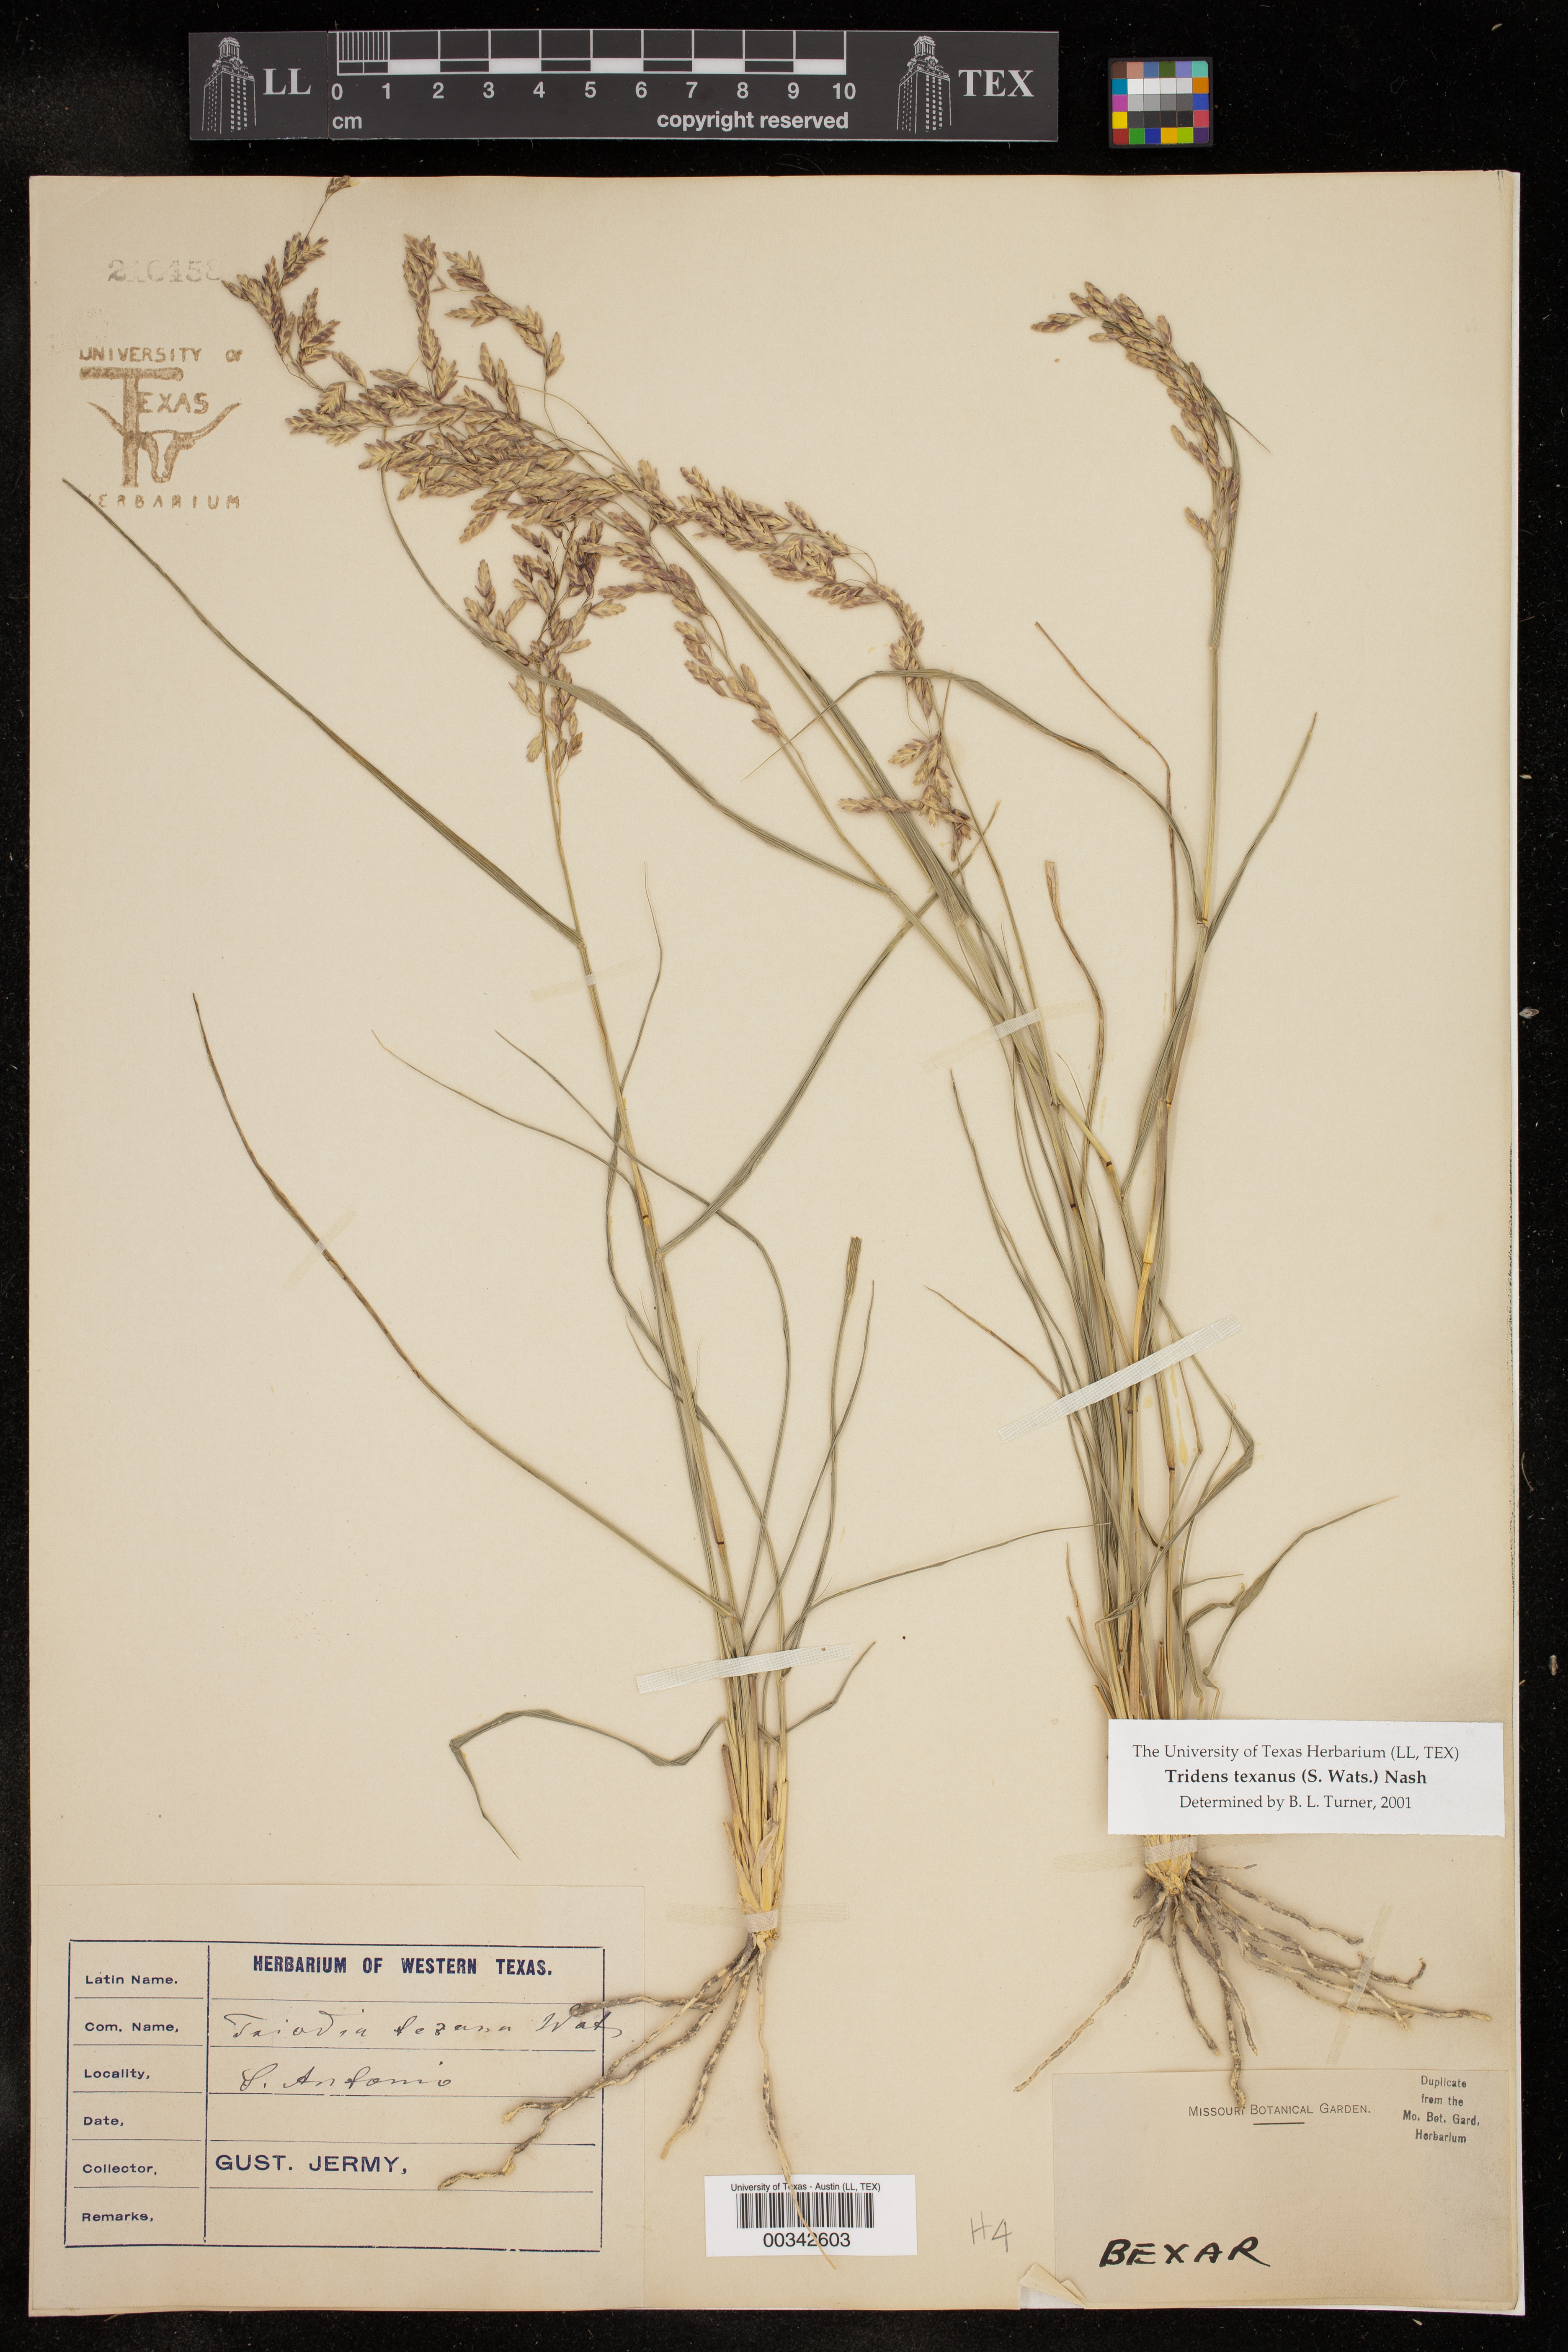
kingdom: Plantae
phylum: Tracheophyta
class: Liliopsida
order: Poales
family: Poaceae
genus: Tridens
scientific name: Tridens texanus
